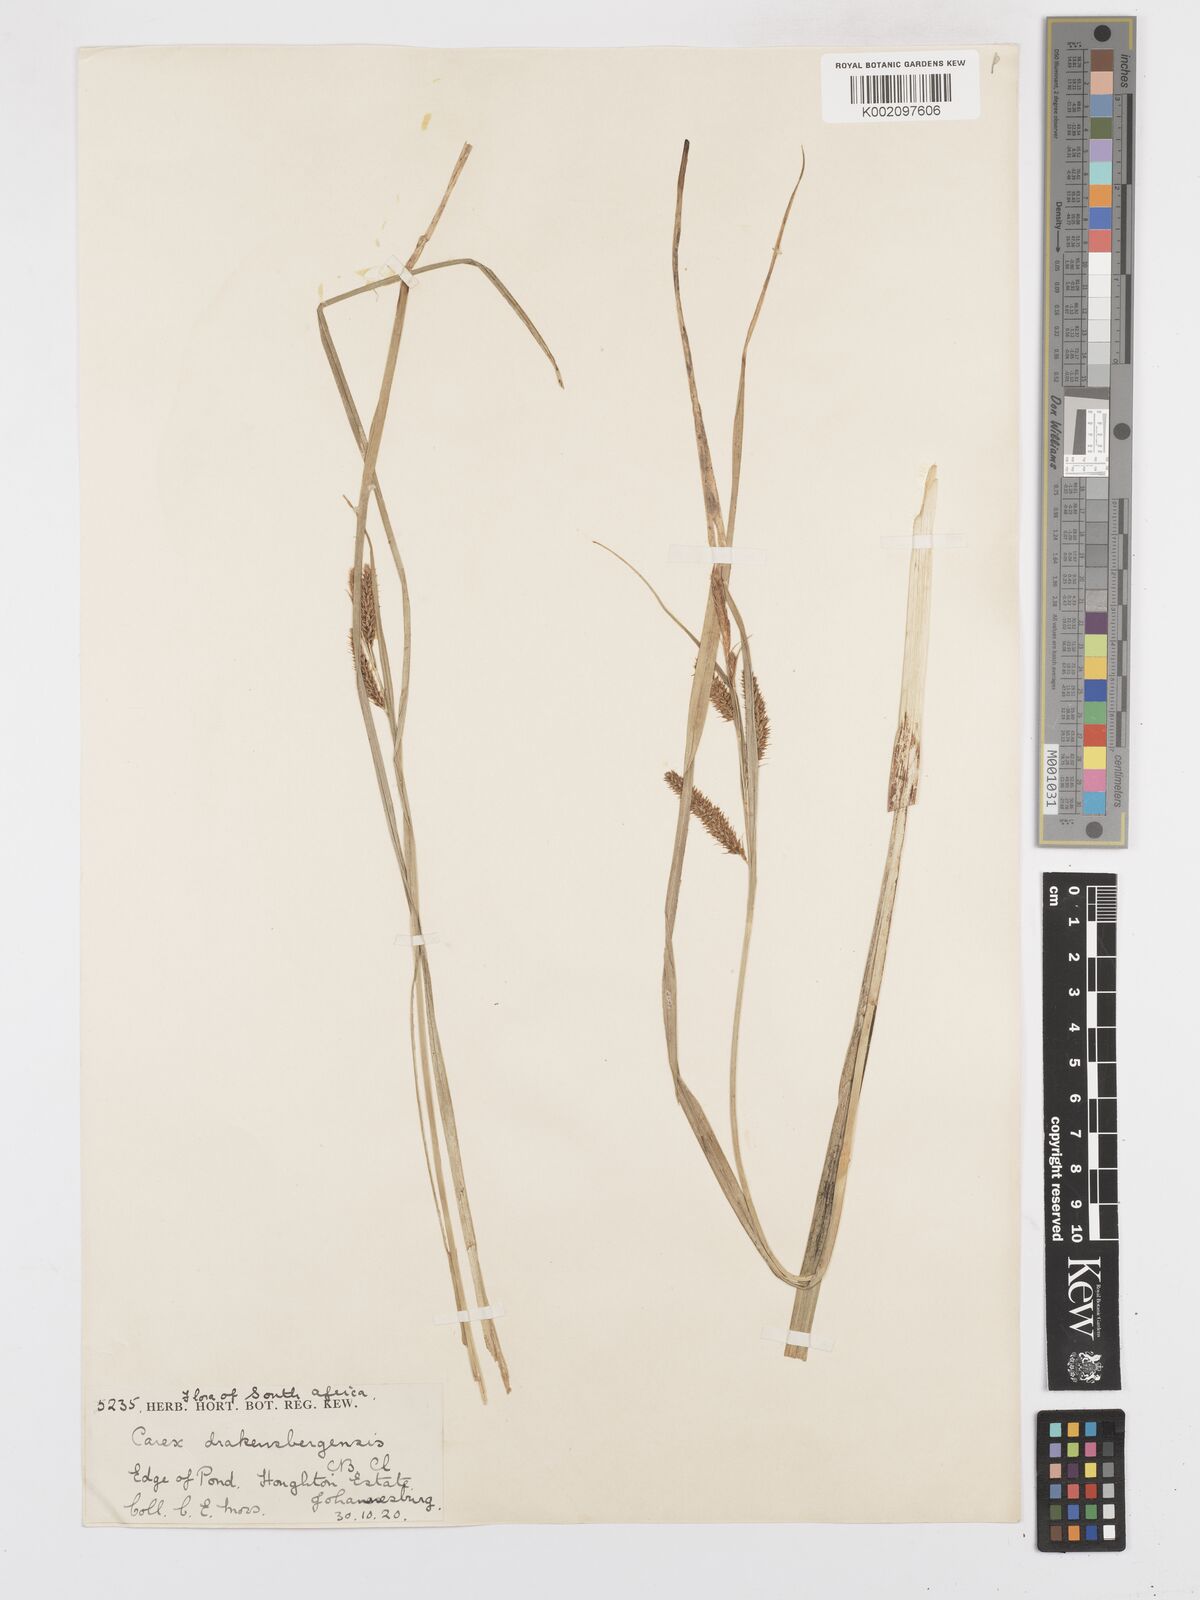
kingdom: Plantae
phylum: Tracheophyta
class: Liliopsida
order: Poales
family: Cyperaceae
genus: Carex
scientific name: Carex cognata
